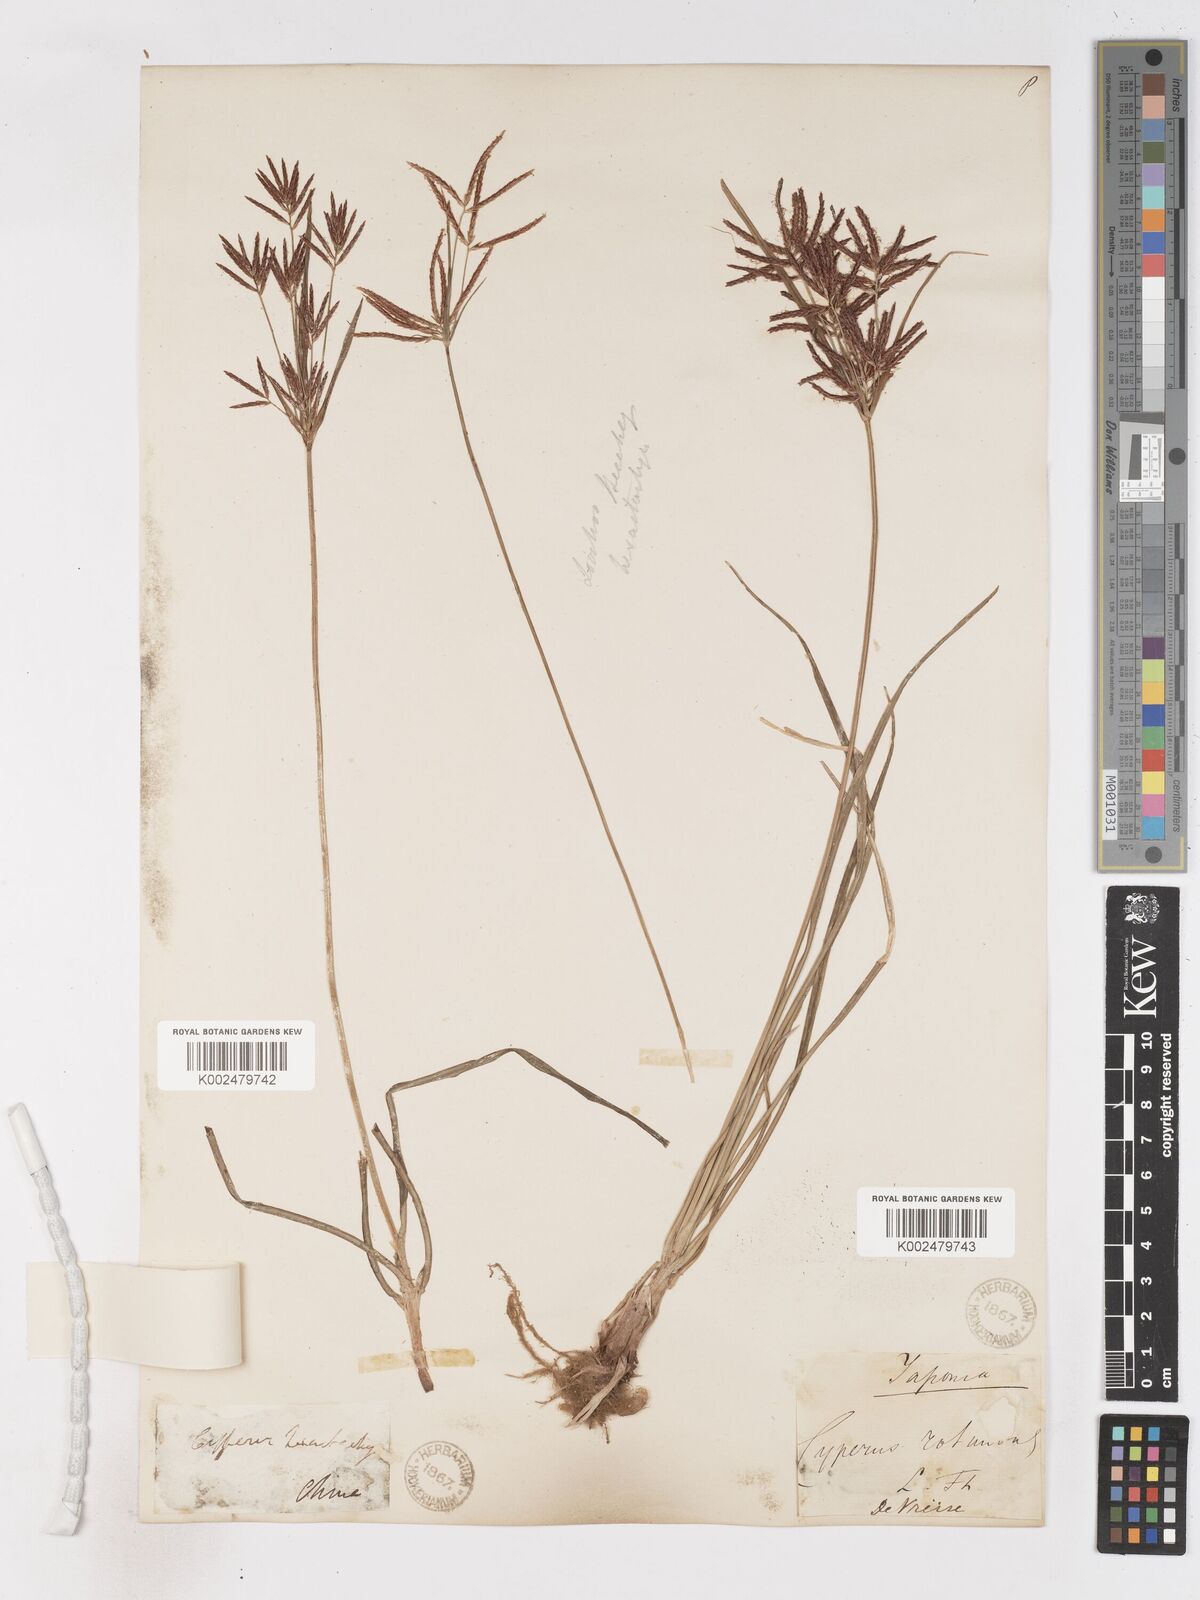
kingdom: Plantae
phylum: Tracheophyta
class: Liliopsida
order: Poales
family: Cyperaceae
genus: Cyperus
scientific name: Cyperus rotundus
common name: Nutgrass
